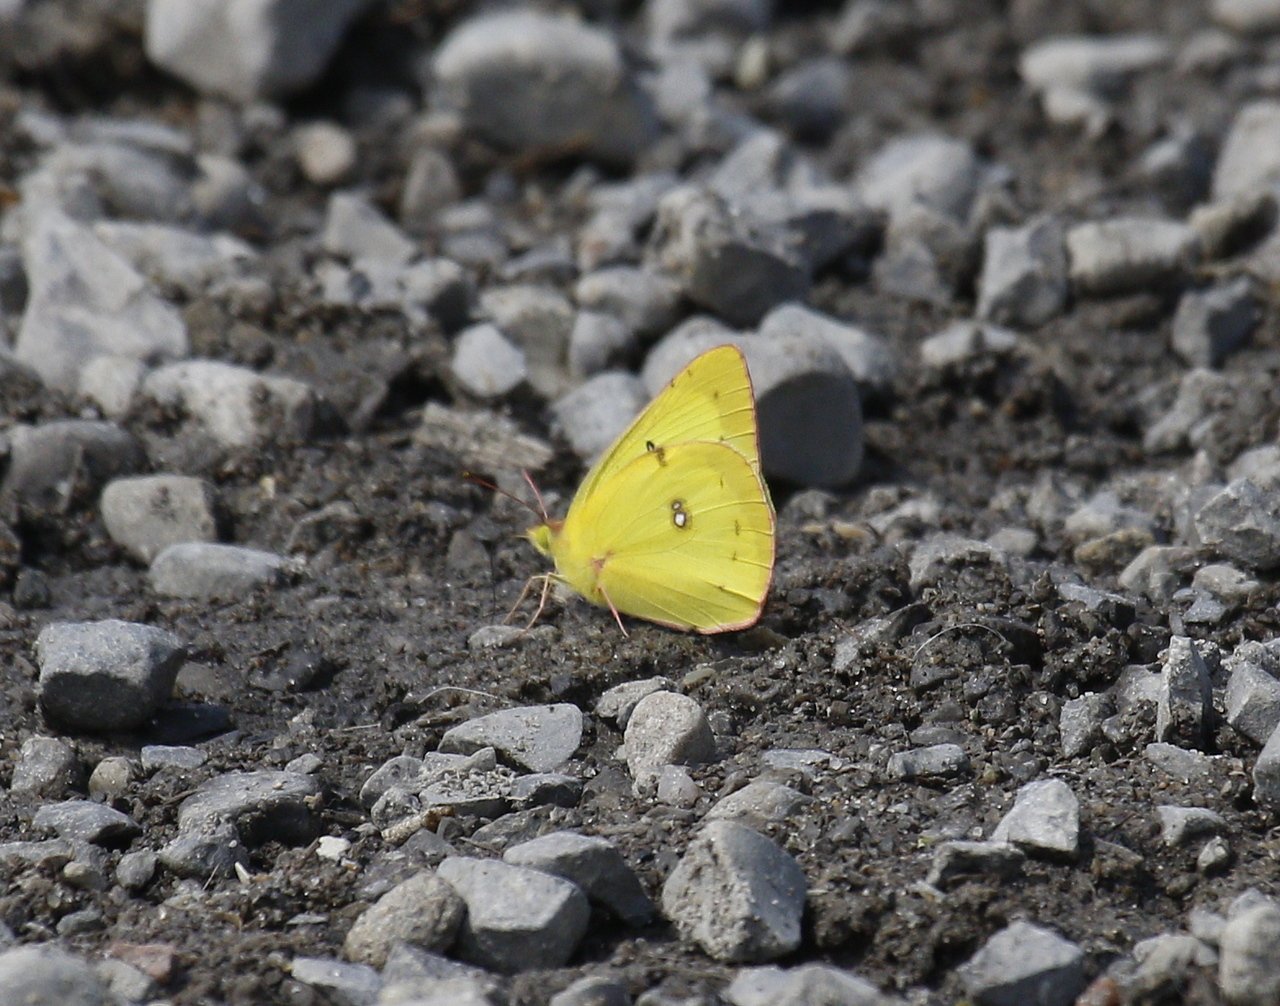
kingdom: Animalia
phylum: Arthropoda
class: Insecta
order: Lepidoptera
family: Pieridae
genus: Colias
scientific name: Colias philodice
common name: Clouded Sulphur
